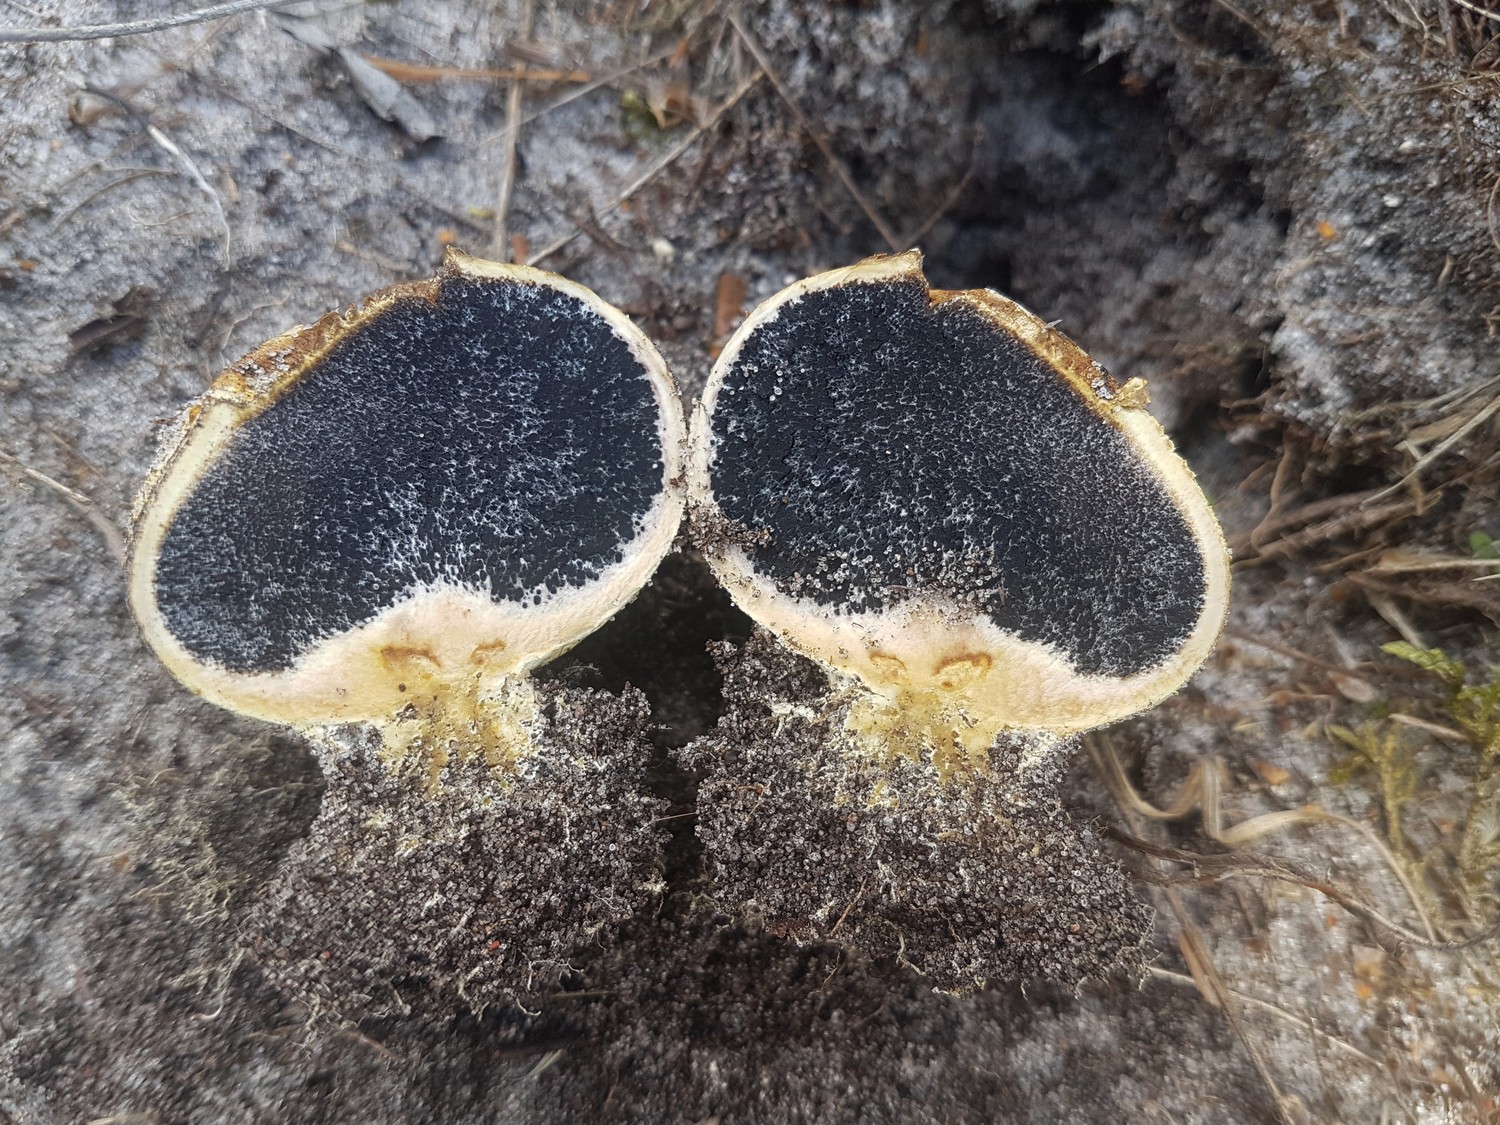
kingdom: Fungi
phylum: Basidiomycota
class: Agaricomycetes
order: Boletales
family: Sclerodermataceae
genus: Scleroderma
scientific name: Scleroderma septentrionale
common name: sand-bruskbold
